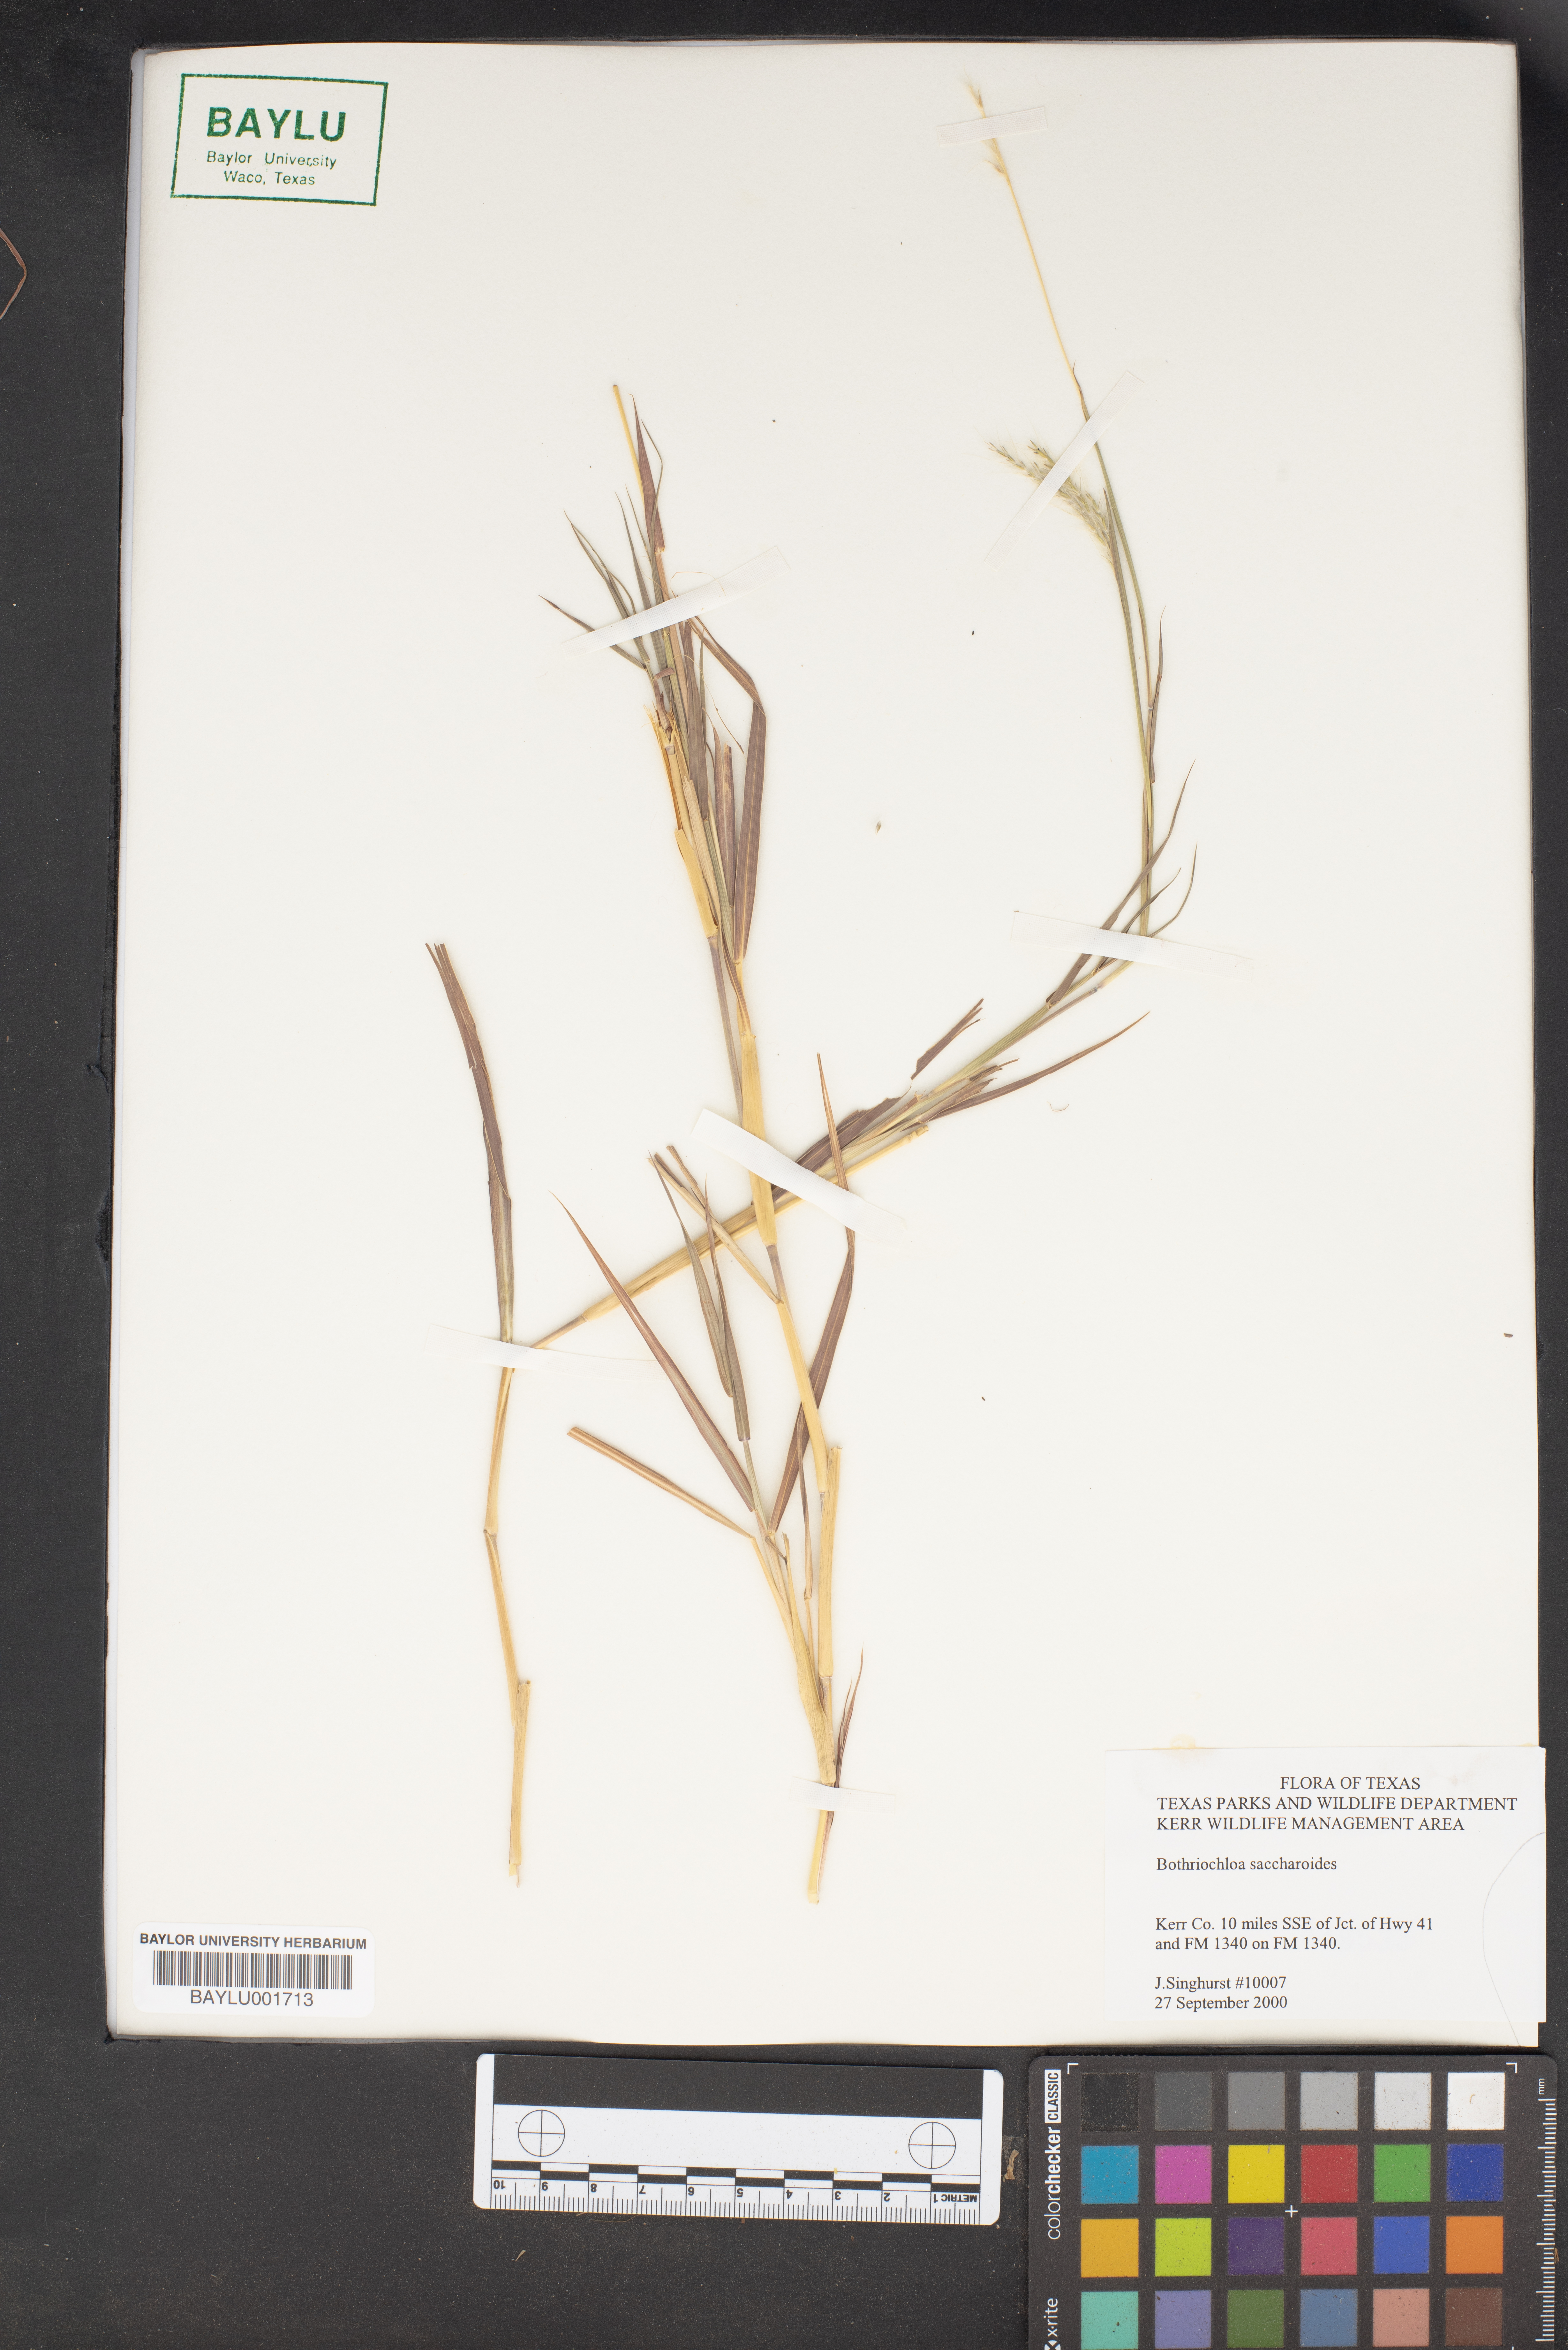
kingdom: Plantae
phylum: Tracheophyta
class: Liliopsida
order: Poales
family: Poaceae
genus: Bothriochloa
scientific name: Bothriochloa saccharoides
